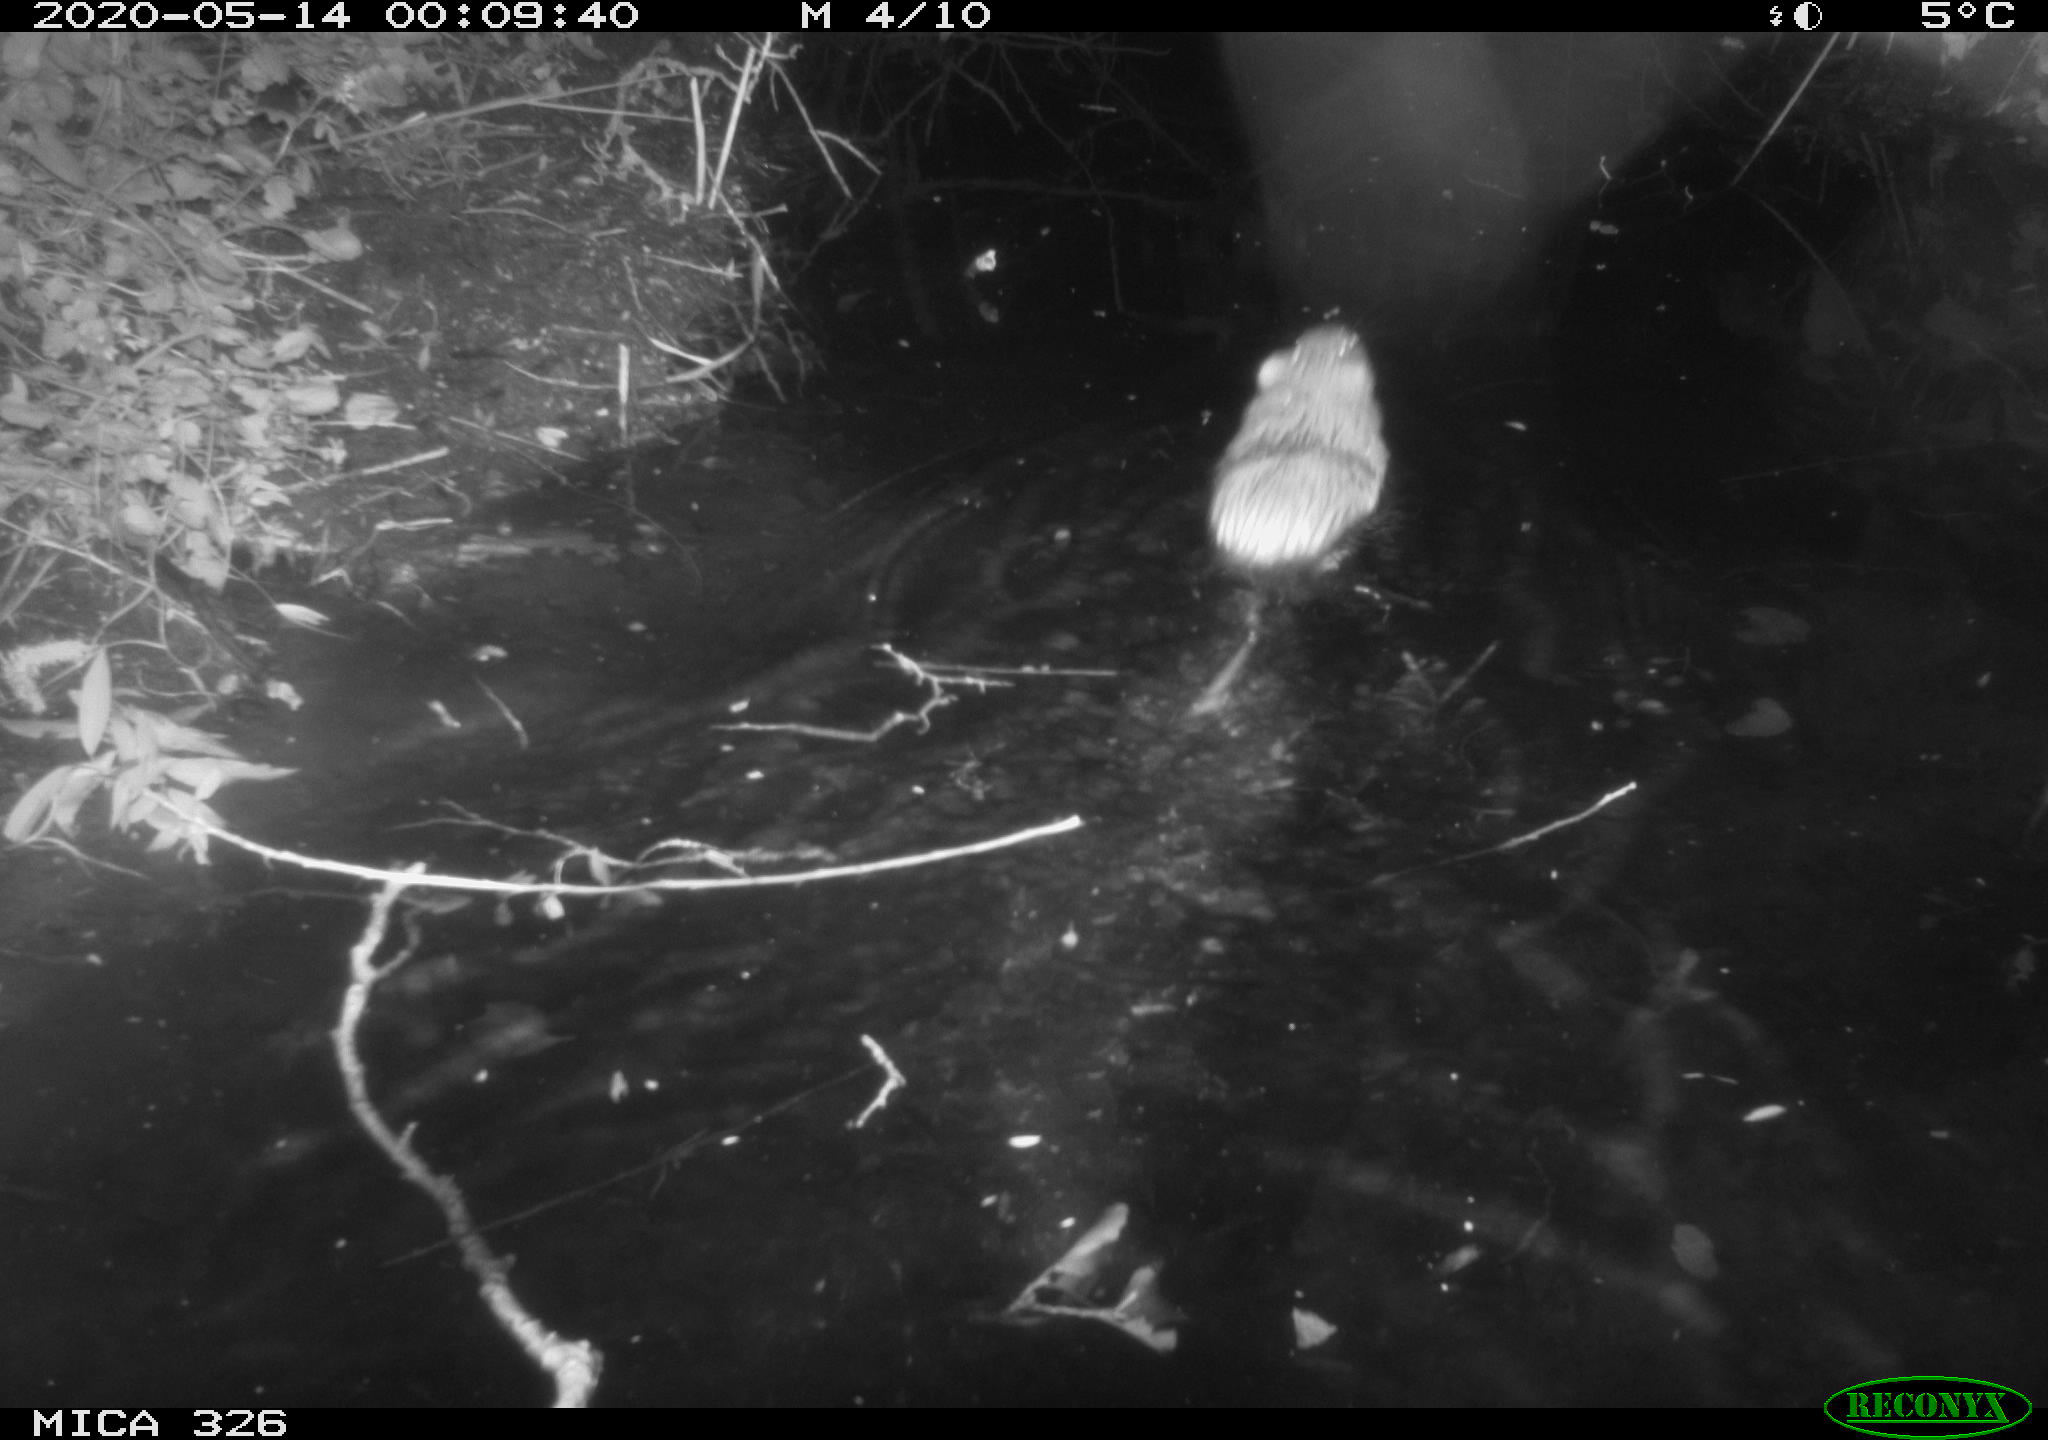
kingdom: Animalia
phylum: Chordata
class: Mammalia
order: Rodentia
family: Myocastoridae
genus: Myocastor
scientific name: Myocastor coypus
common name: Coypu
